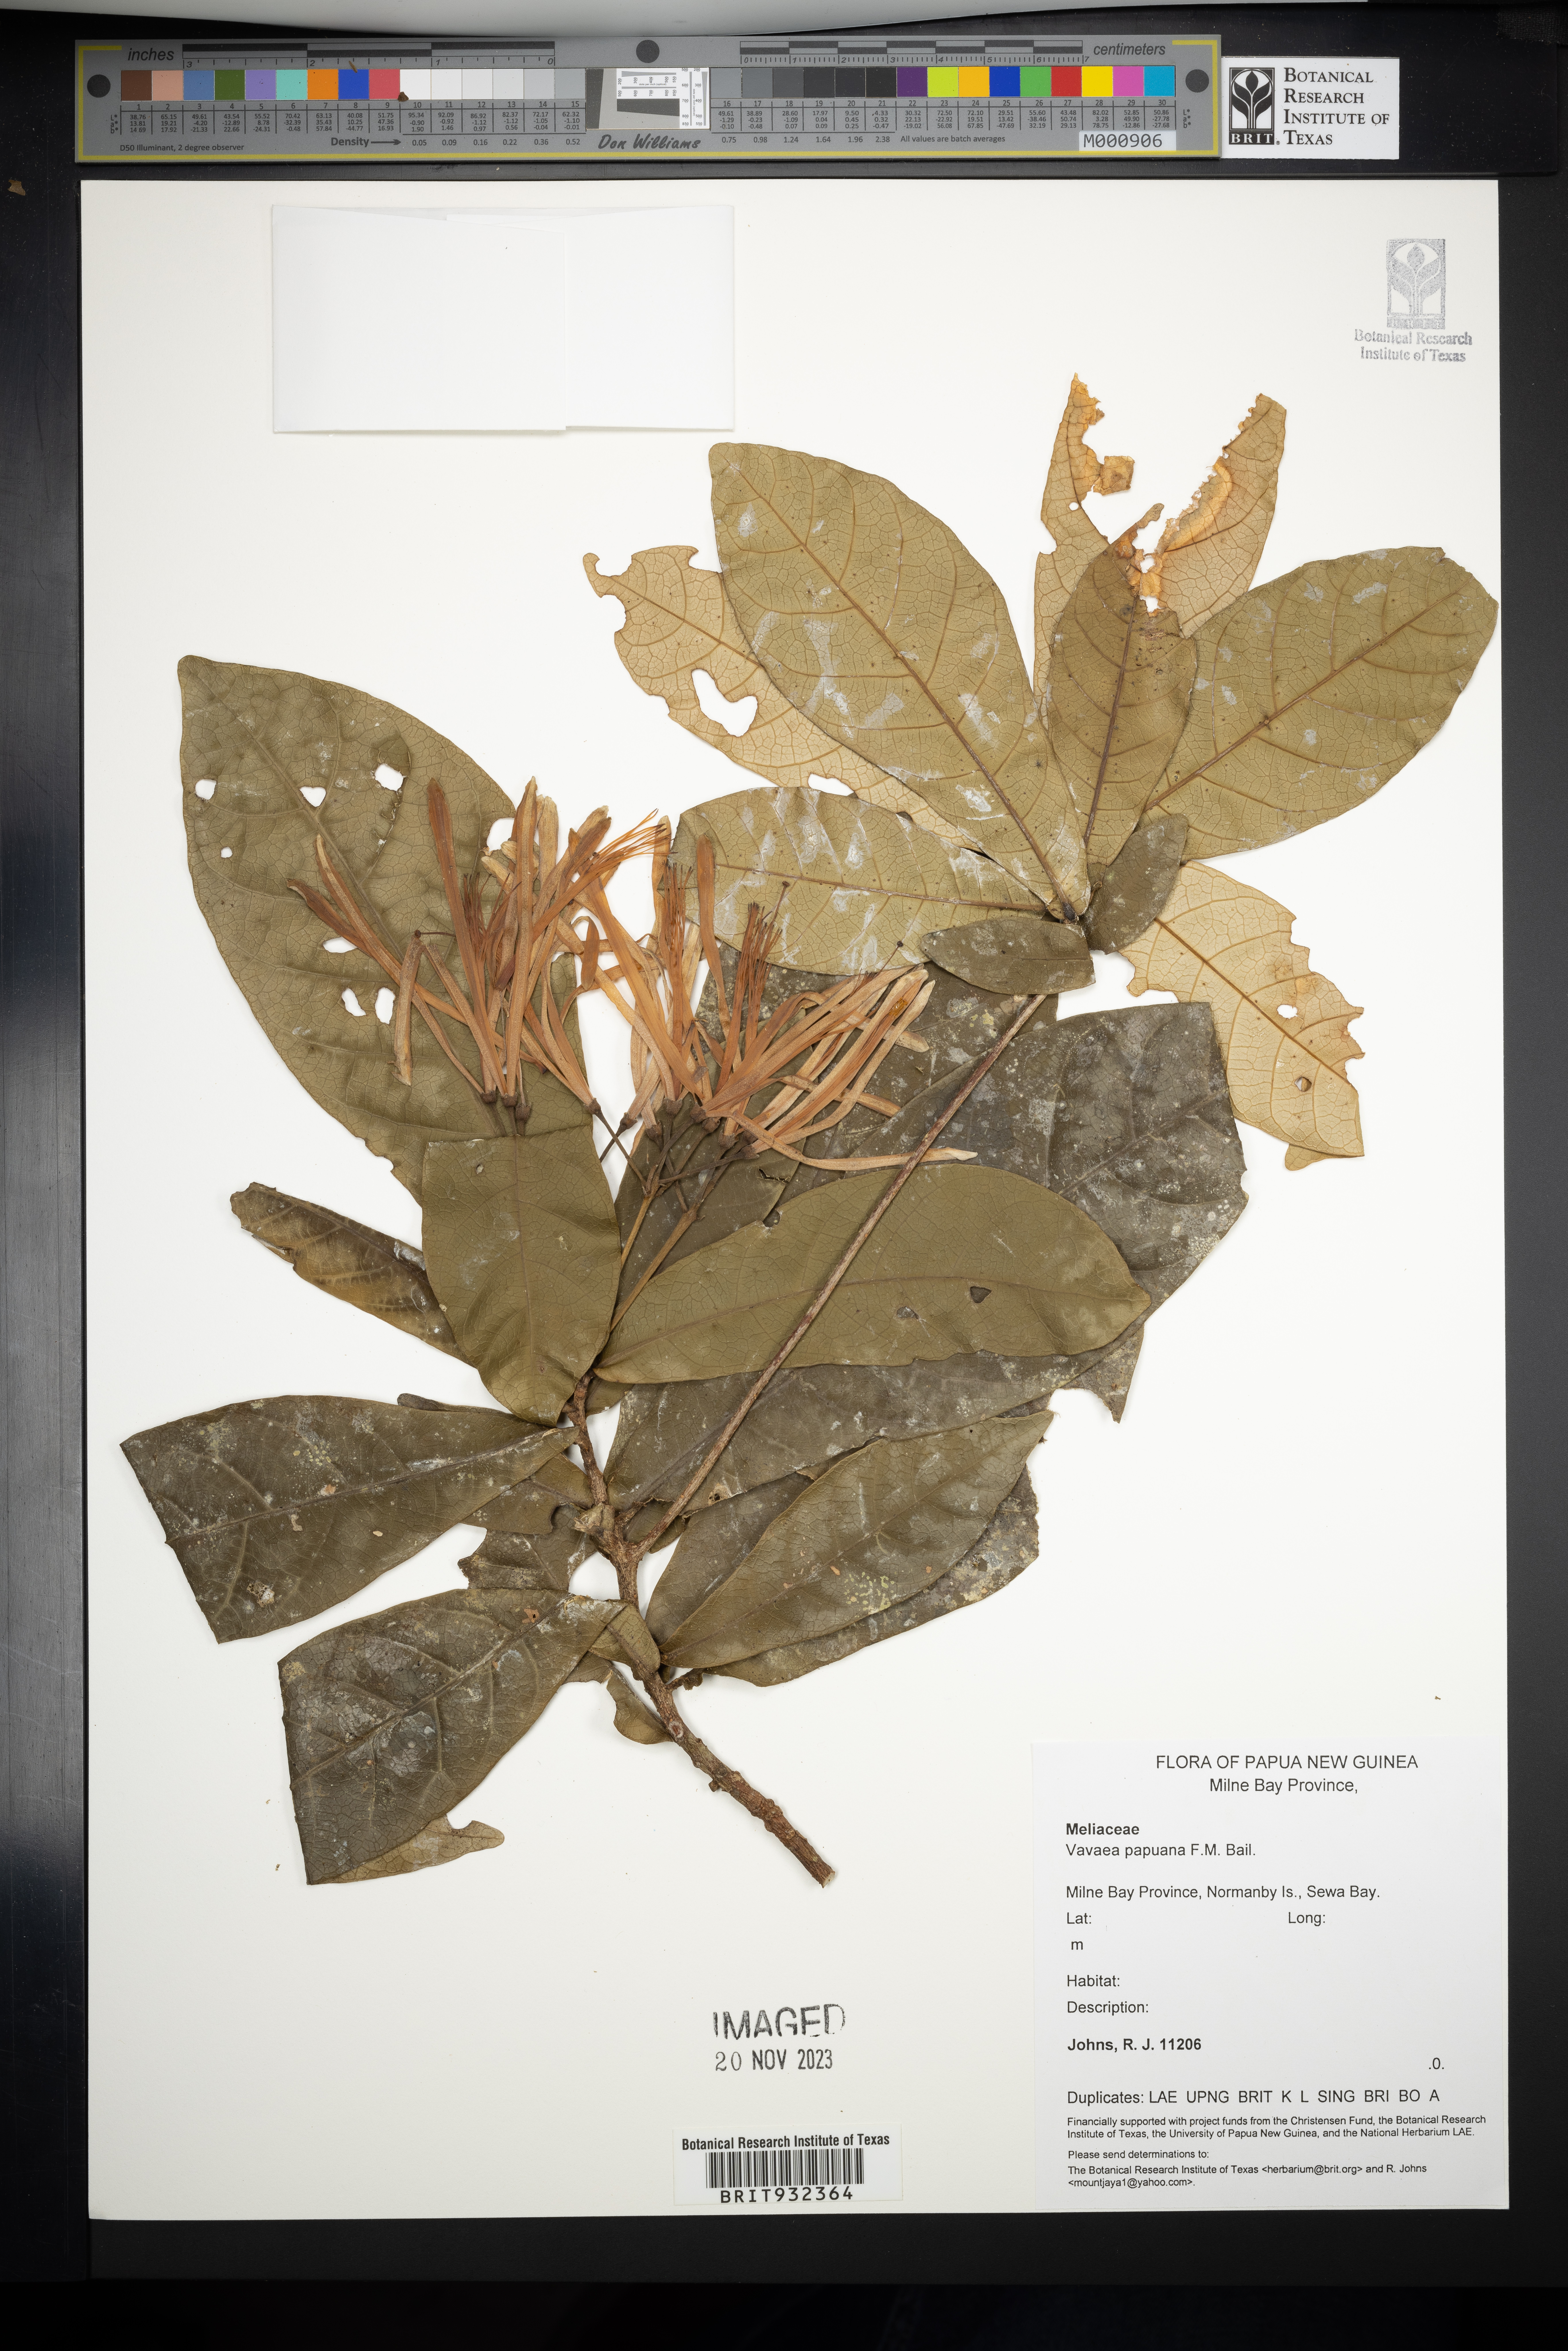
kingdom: Plantae
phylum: Tracheophyta
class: Magnoliopsida
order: Sapindales
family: Meliaceae
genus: Vavaea
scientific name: Vavaea
